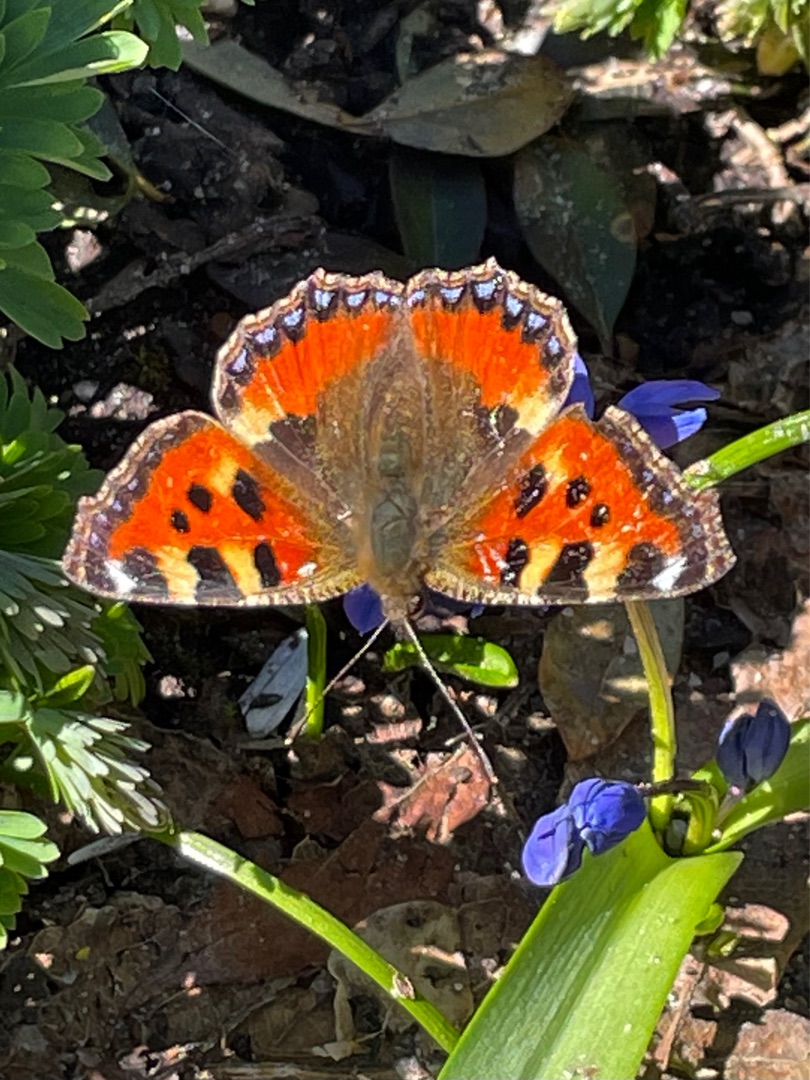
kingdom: Animalia
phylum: Arthropoda
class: Insecta
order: Lepidoptera
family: Nymphalidae
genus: Aglais
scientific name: Aglais urticae
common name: Nældens takvinge
